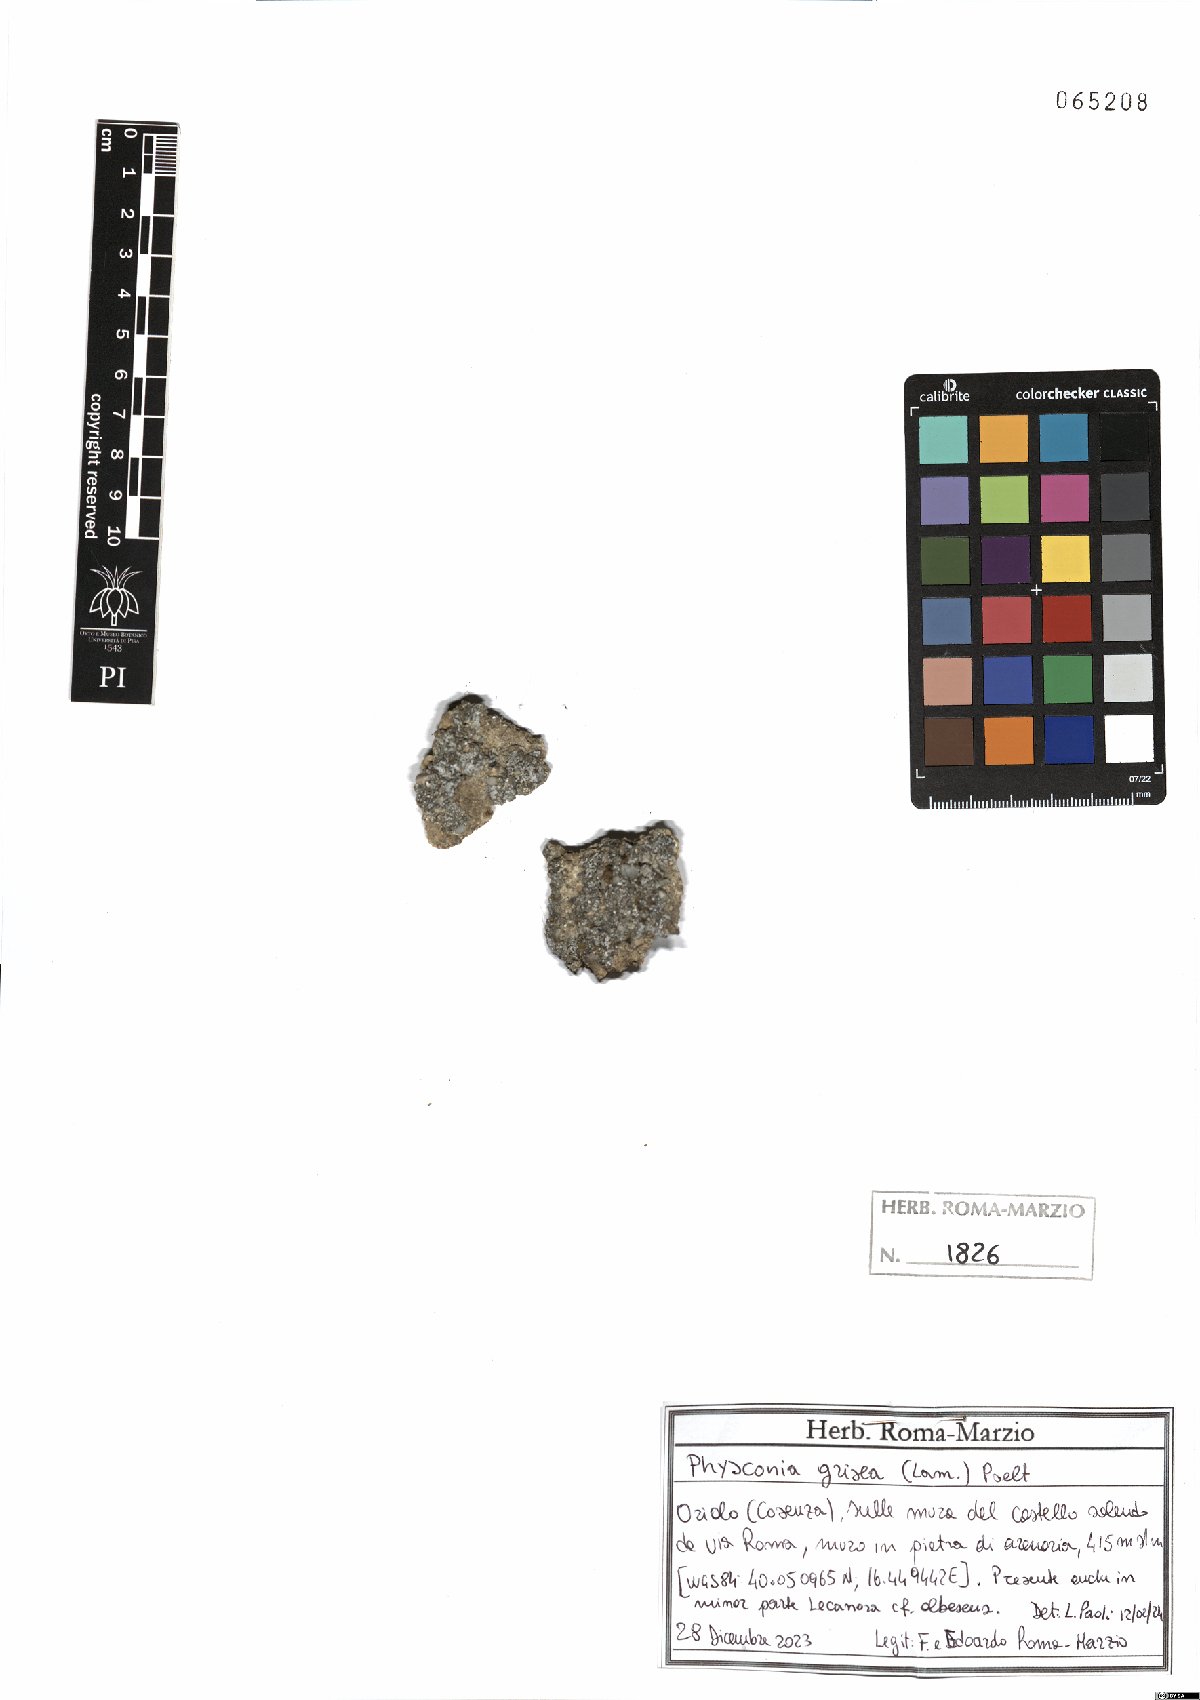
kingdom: Fungi
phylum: Ascomycota
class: Lecanoromycetes
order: Caliciales
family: Physciaceae
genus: Poeltonia
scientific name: Poeltonia grisea
